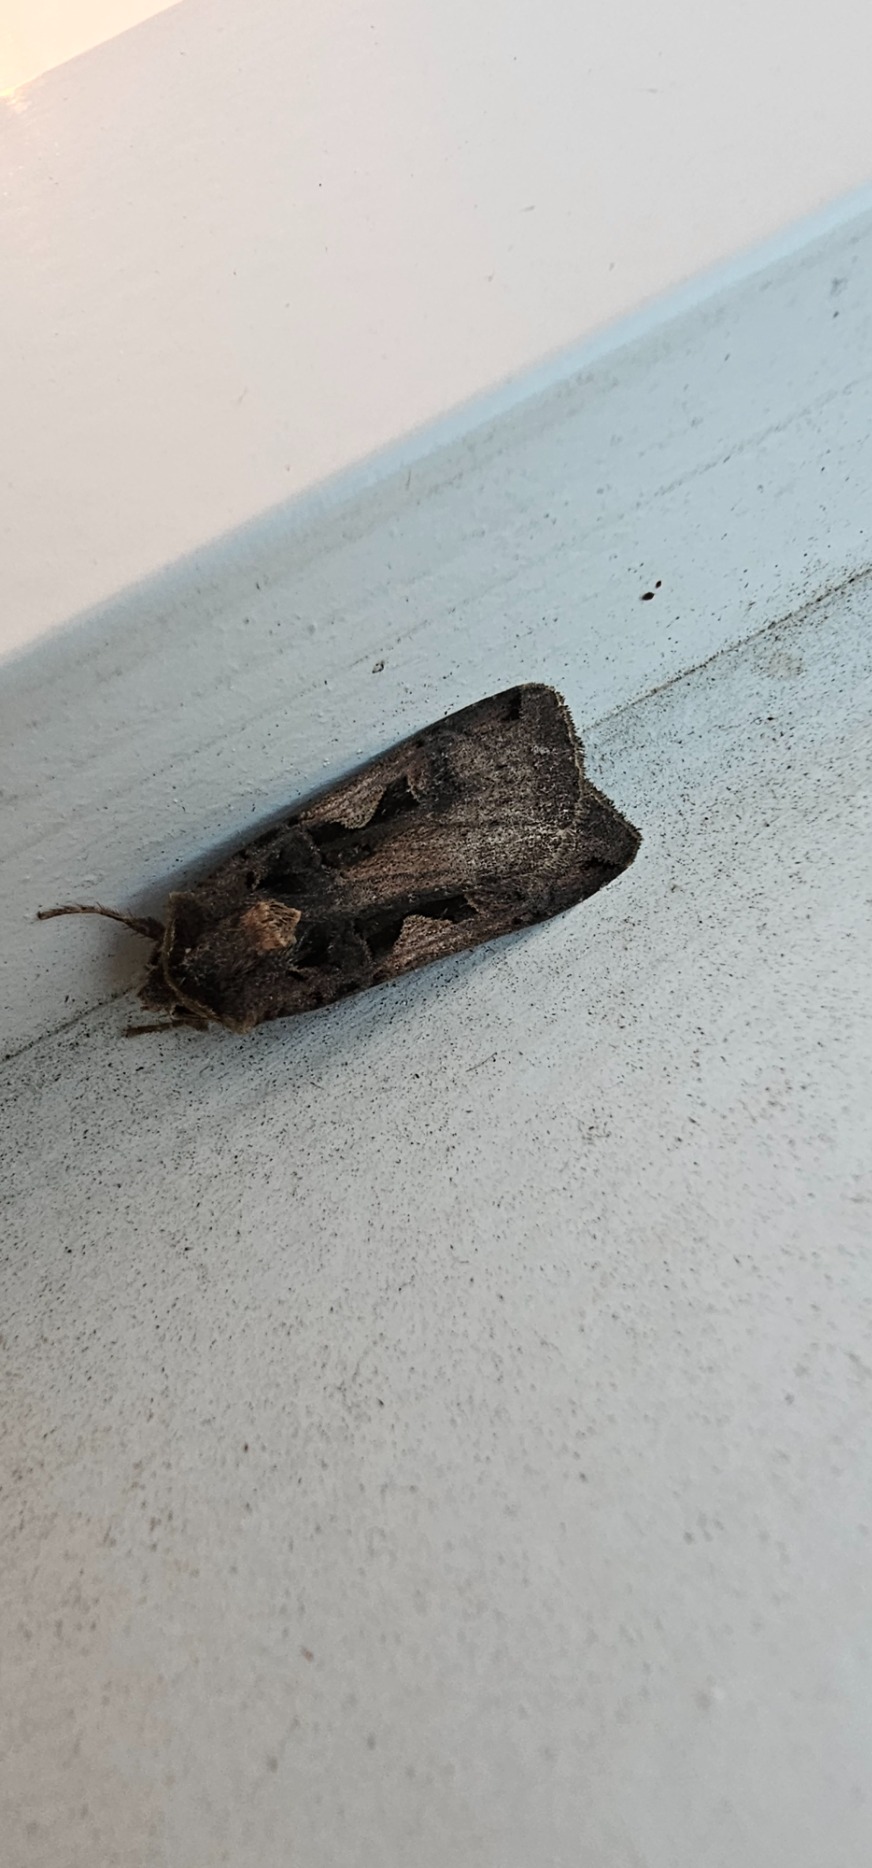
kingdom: Animalia
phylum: Arthropoda
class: Insecta
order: Lepidoptera
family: Noctuidae
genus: Xestia
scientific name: Xestia c-nigrum
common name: Det sorte c
